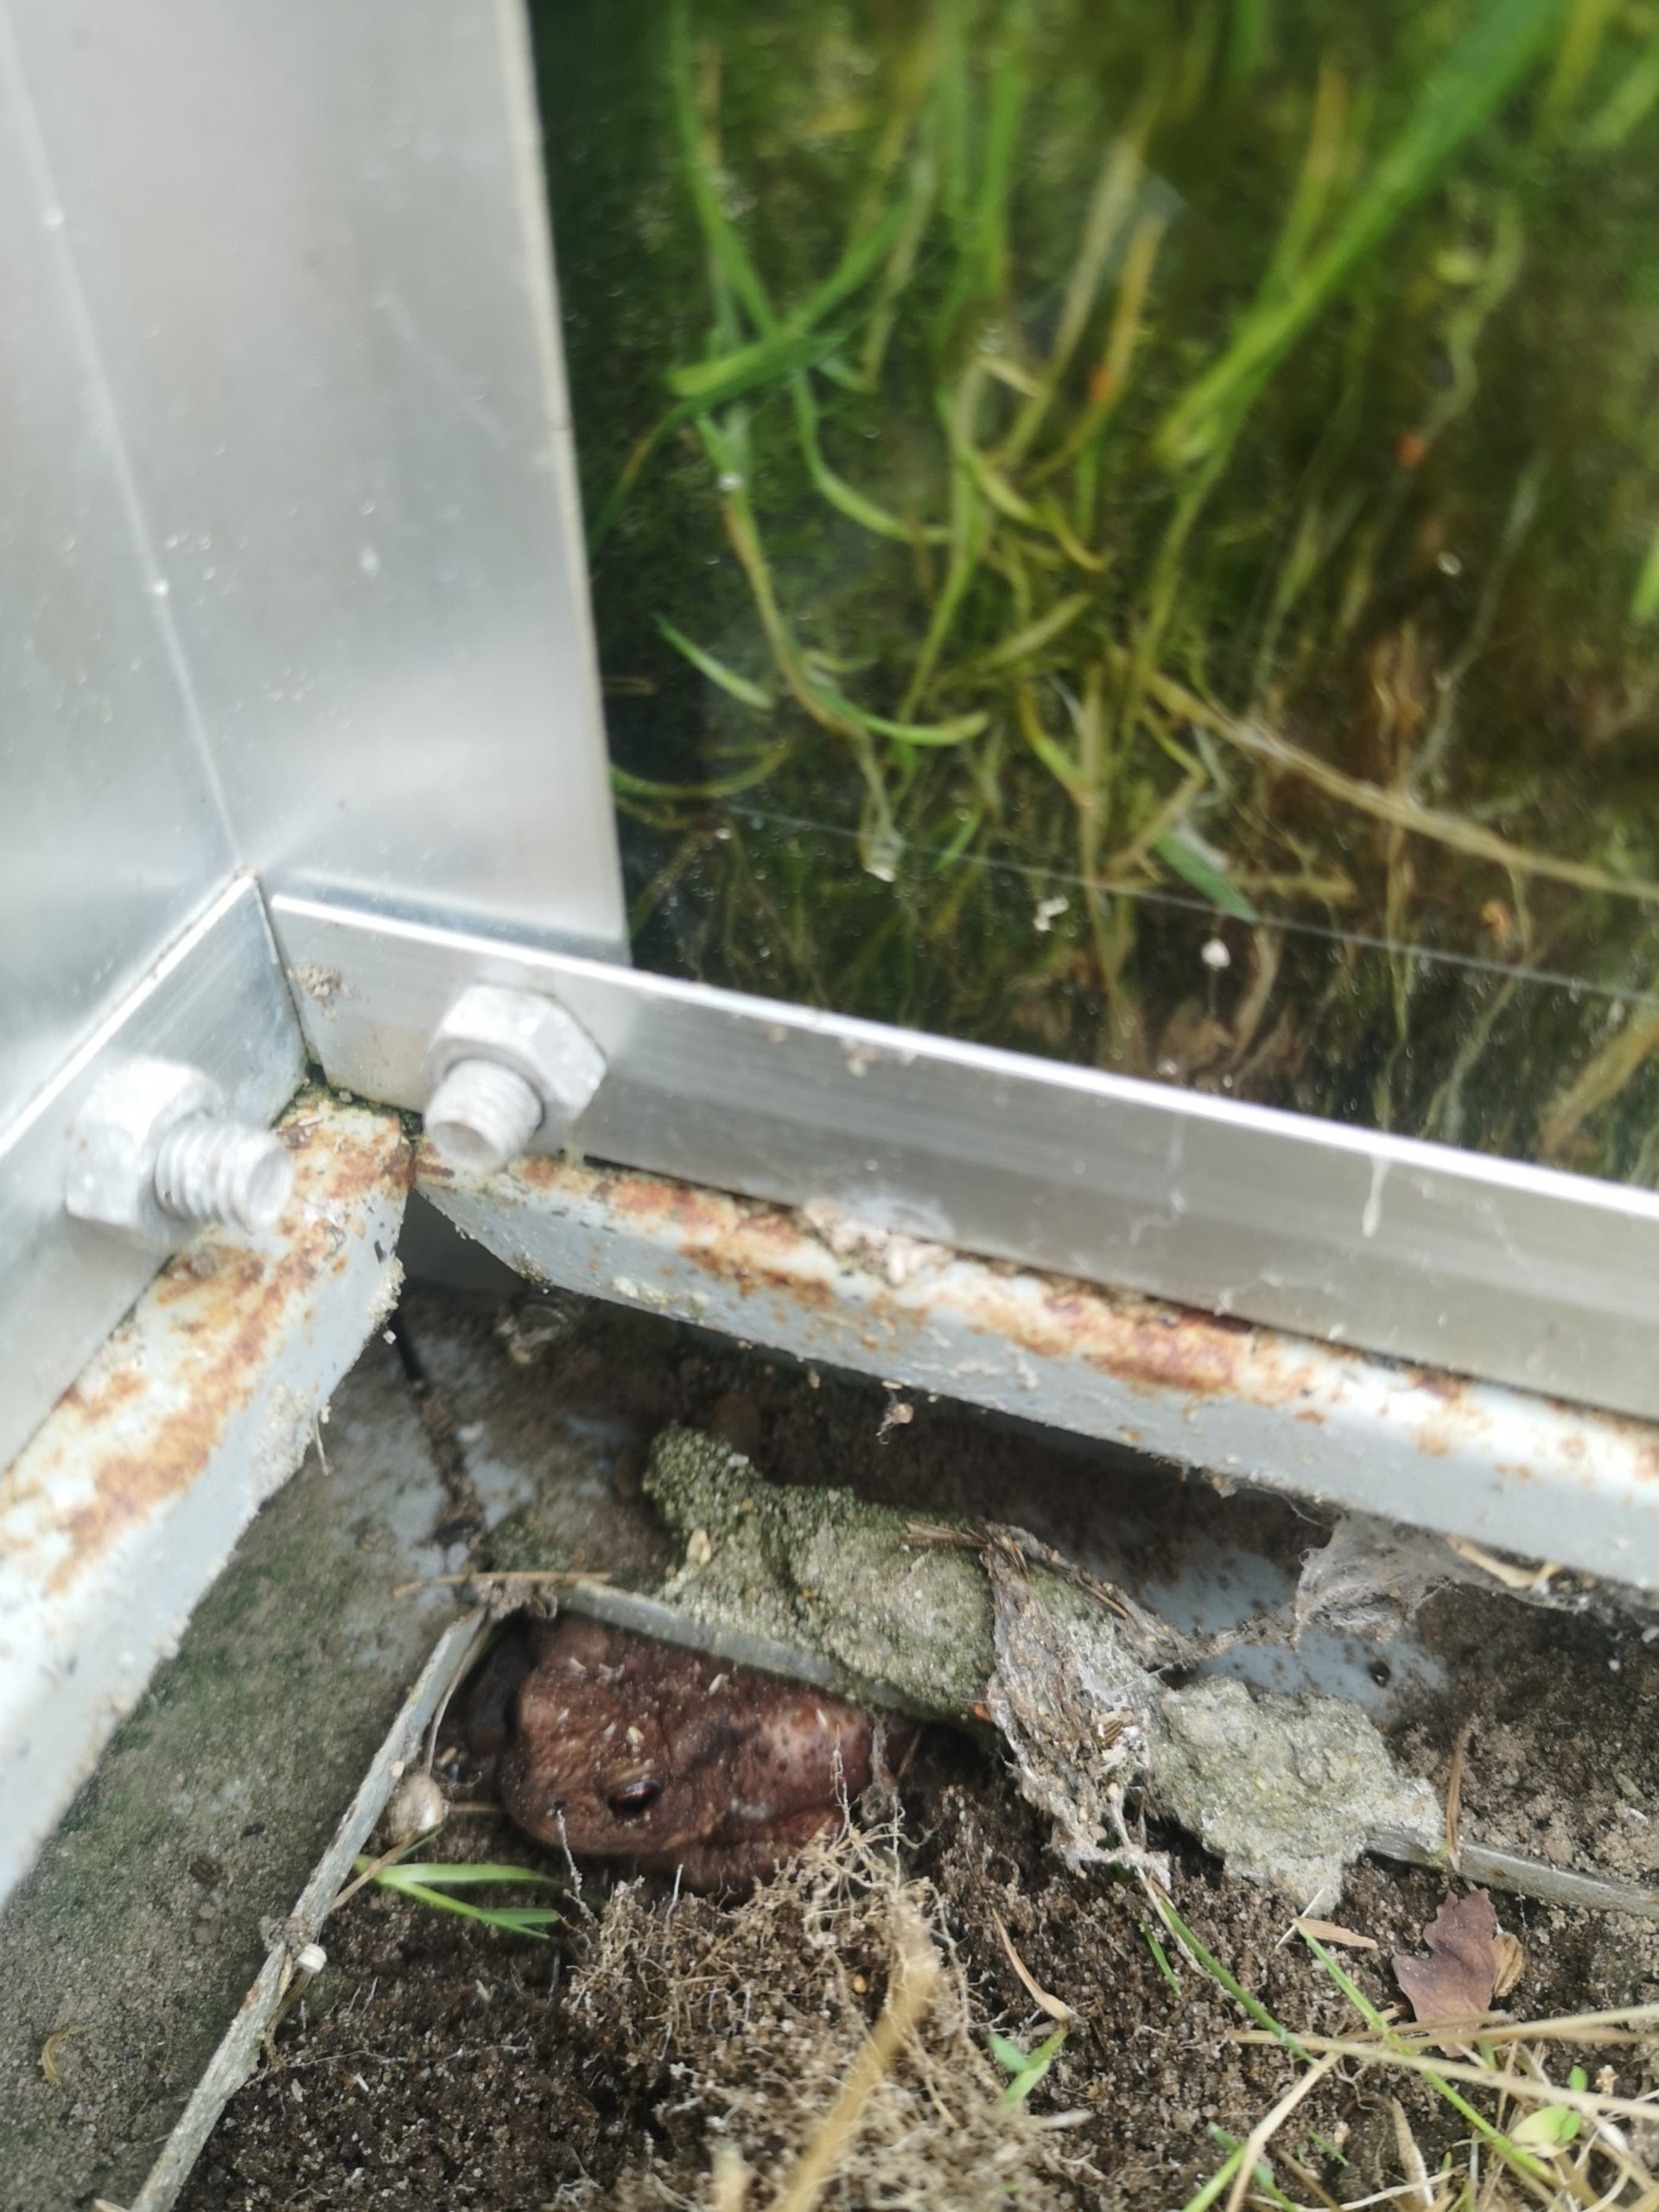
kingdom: Animalia
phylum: Chordata
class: Amphibia
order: Anura
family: Bufonidae
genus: Bufo
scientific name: Bufo bufo
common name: Skrubtudse
